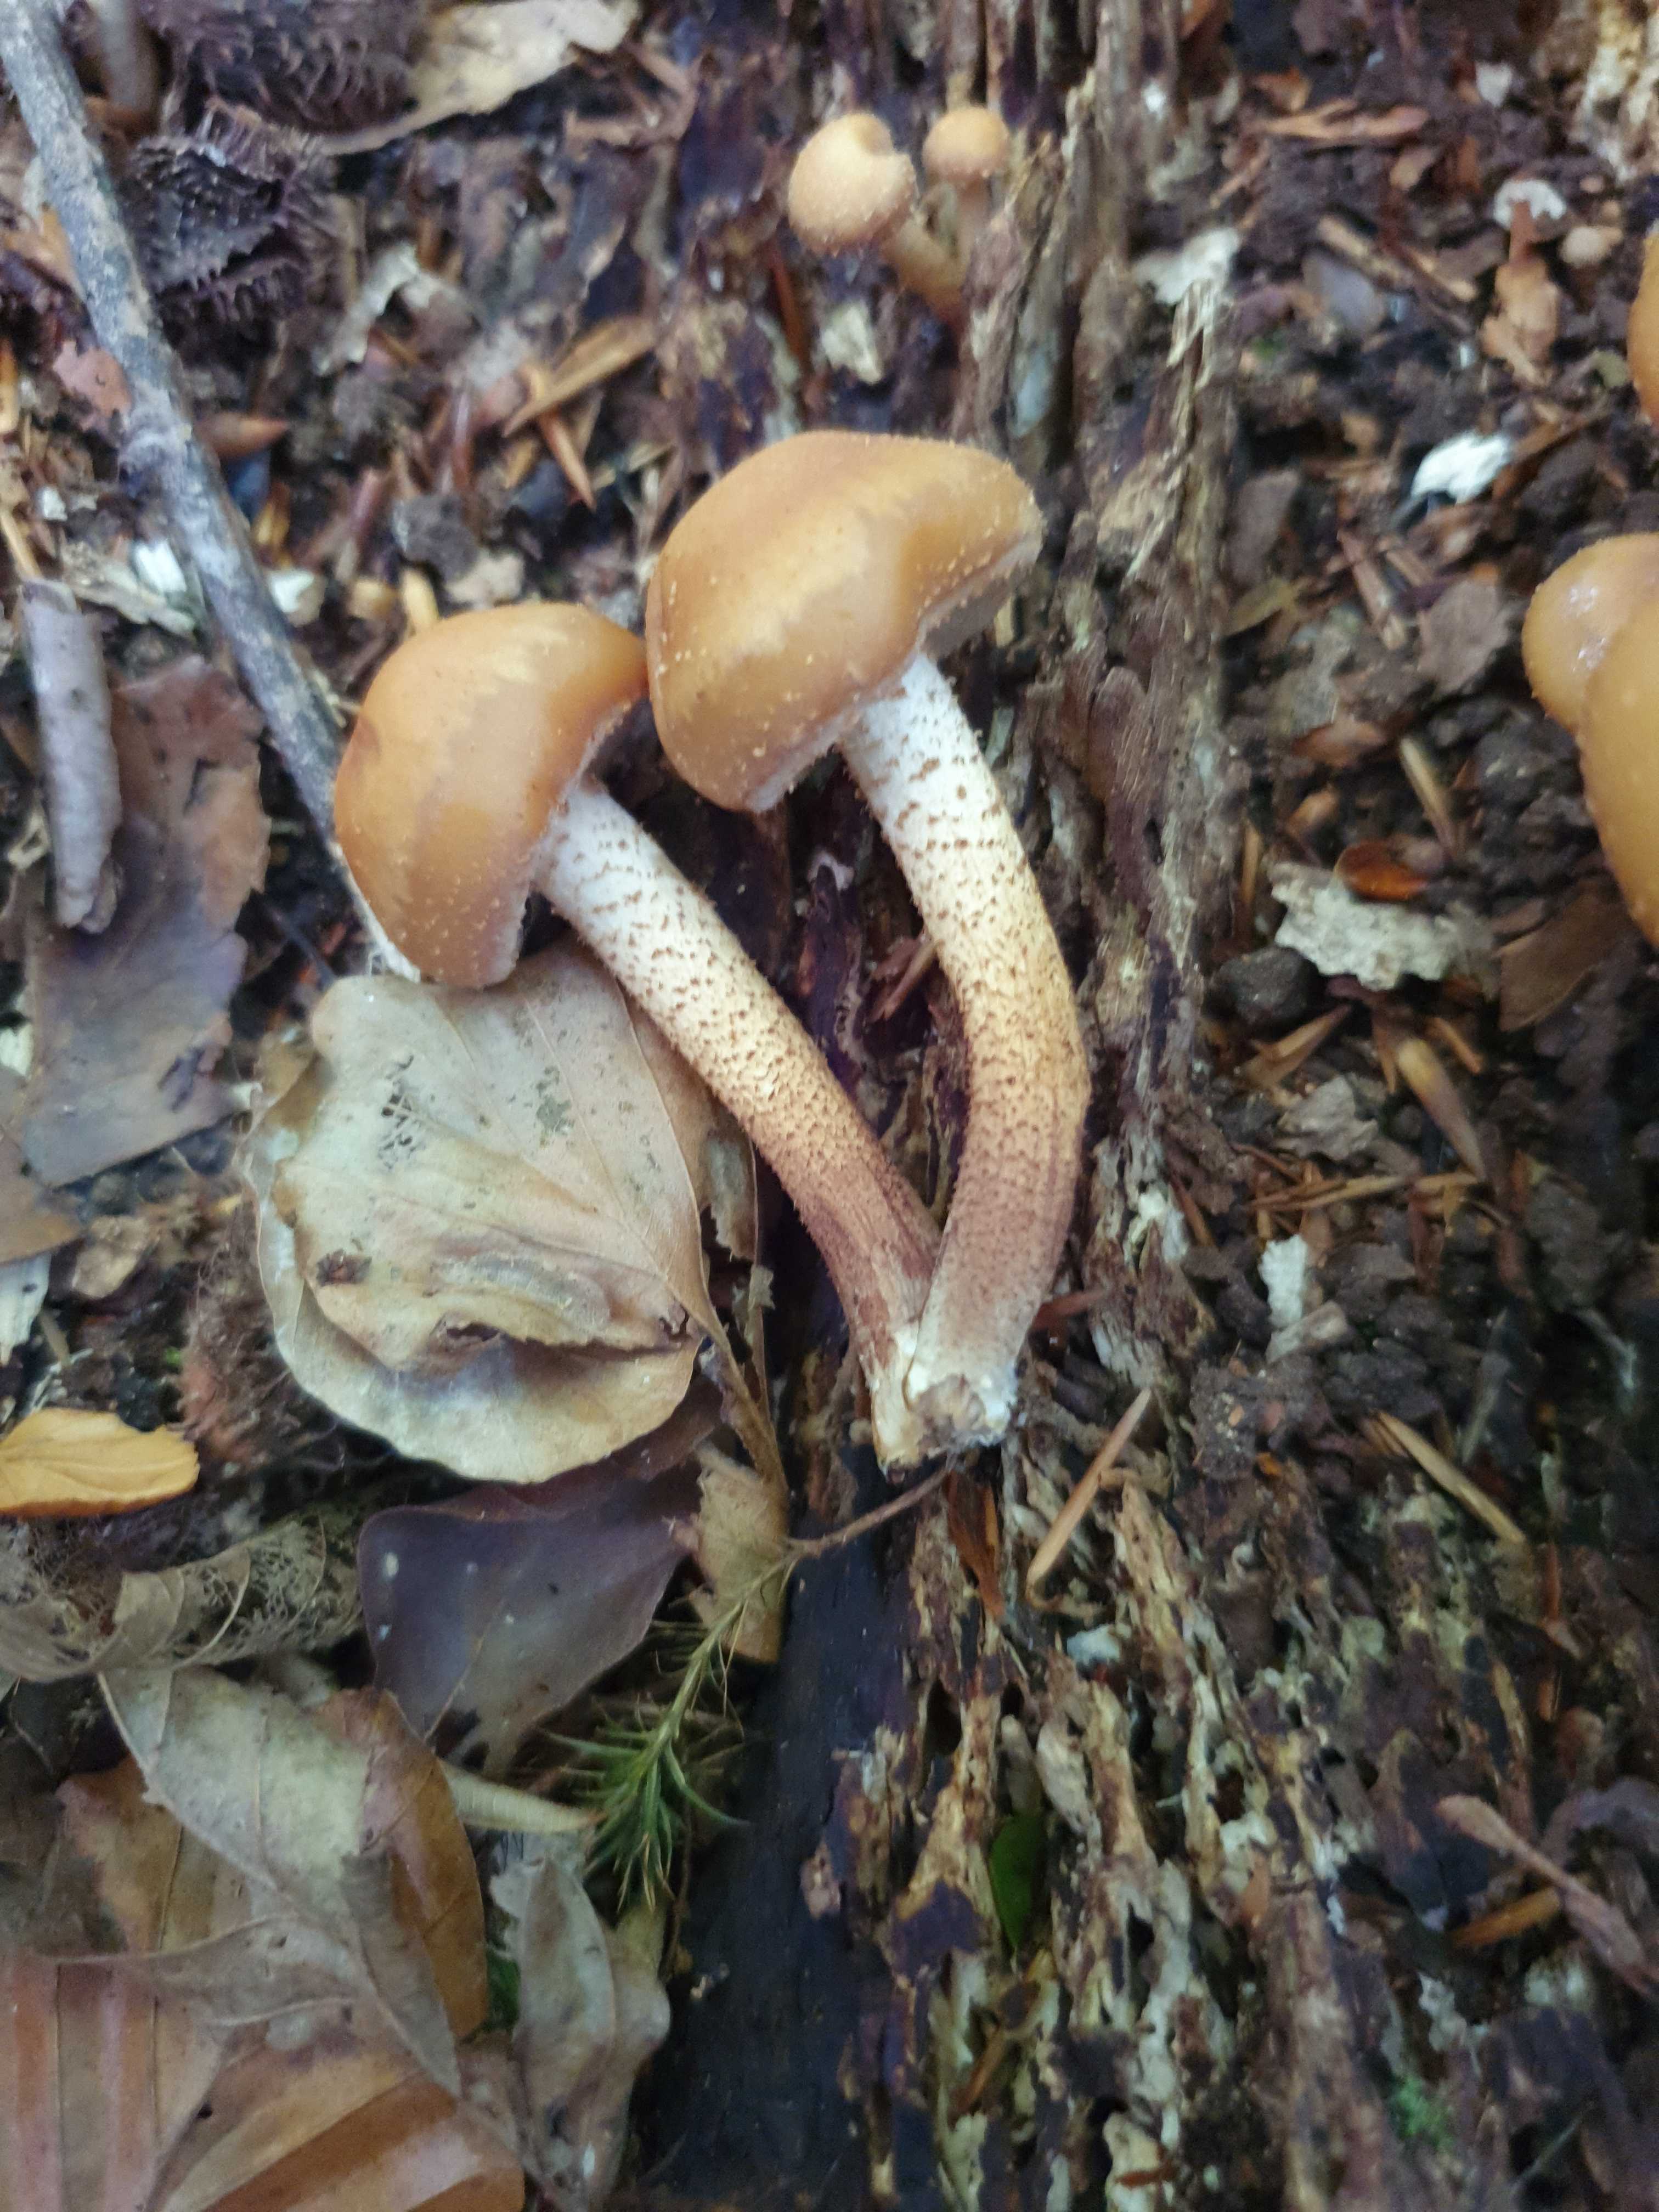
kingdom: Fungi
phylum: Basidiomycota
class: Agaricomycetes
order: Agaricales
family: Strophariaceae
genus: Kuehneromyces
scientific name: Kuehneromyces mutabilis
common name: foranderlig skælhat
